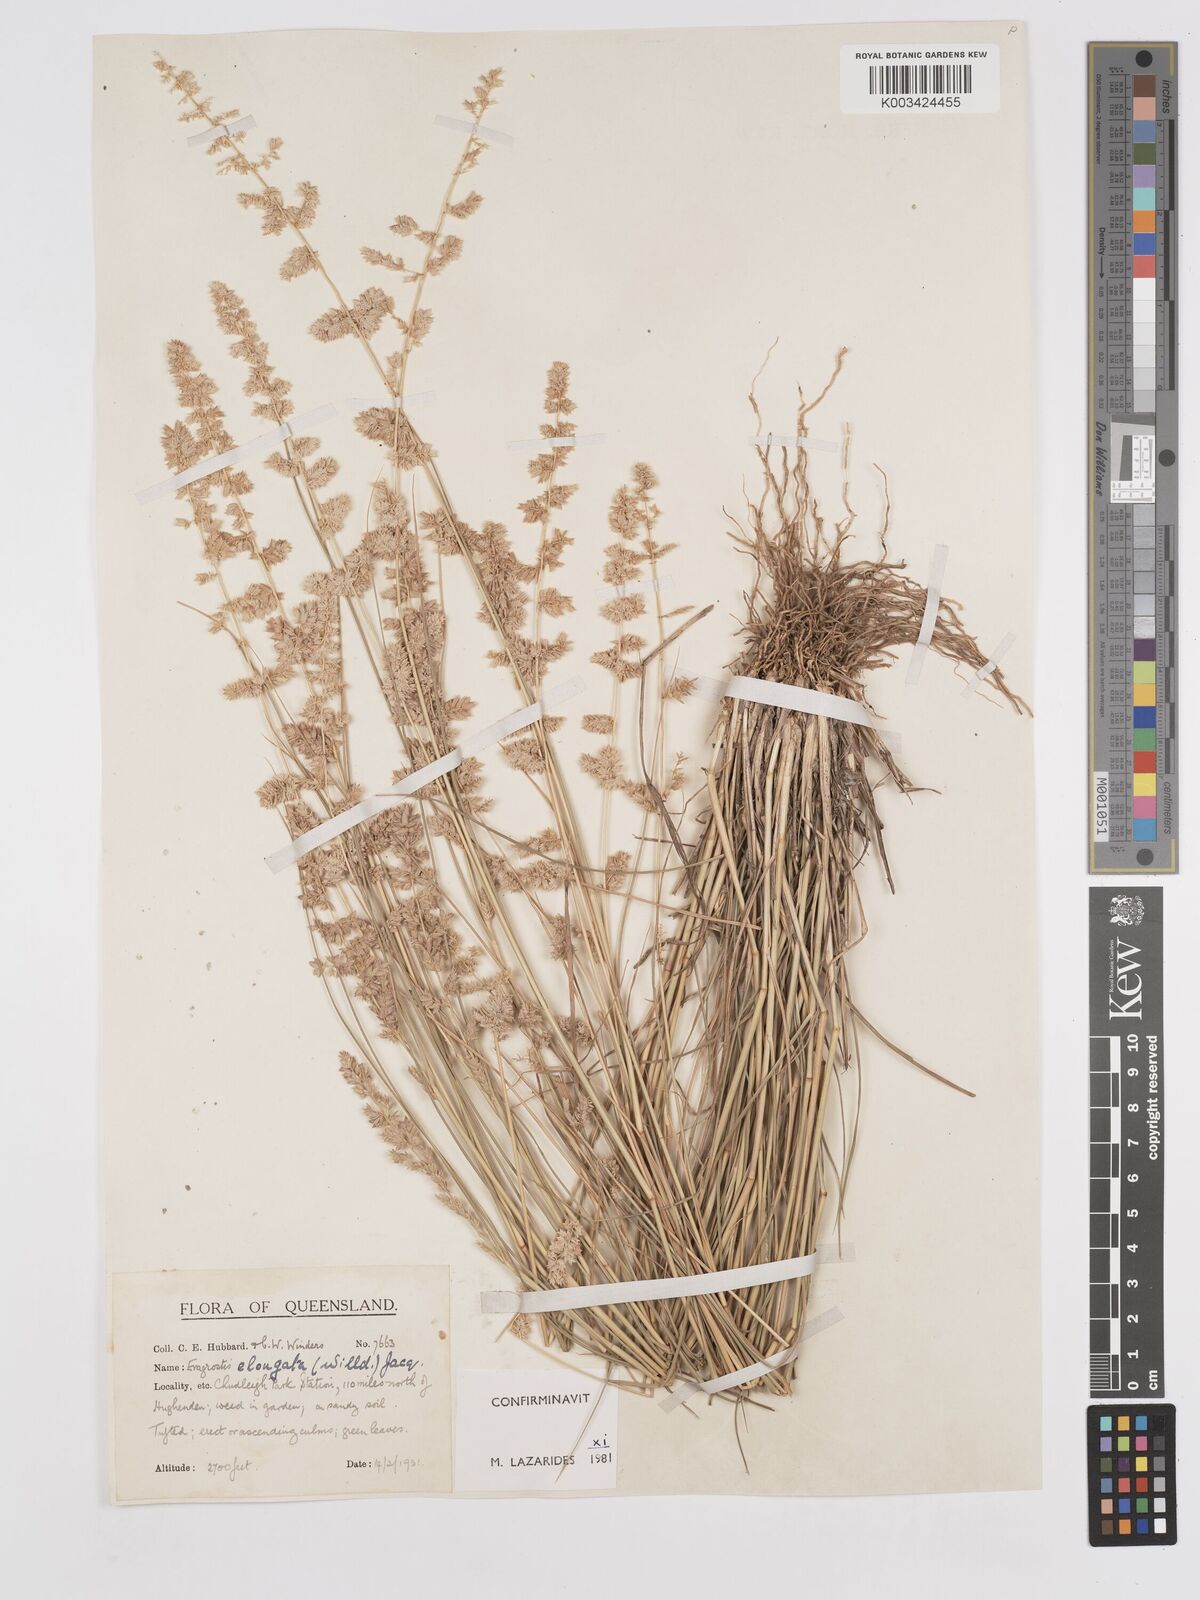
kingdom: Plantae
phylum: Tracheophyta
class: Liliopsida
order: Poales
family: Poaceae
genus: Eragrostis
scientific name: Eragrostis elongata
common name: Long lovegrass
